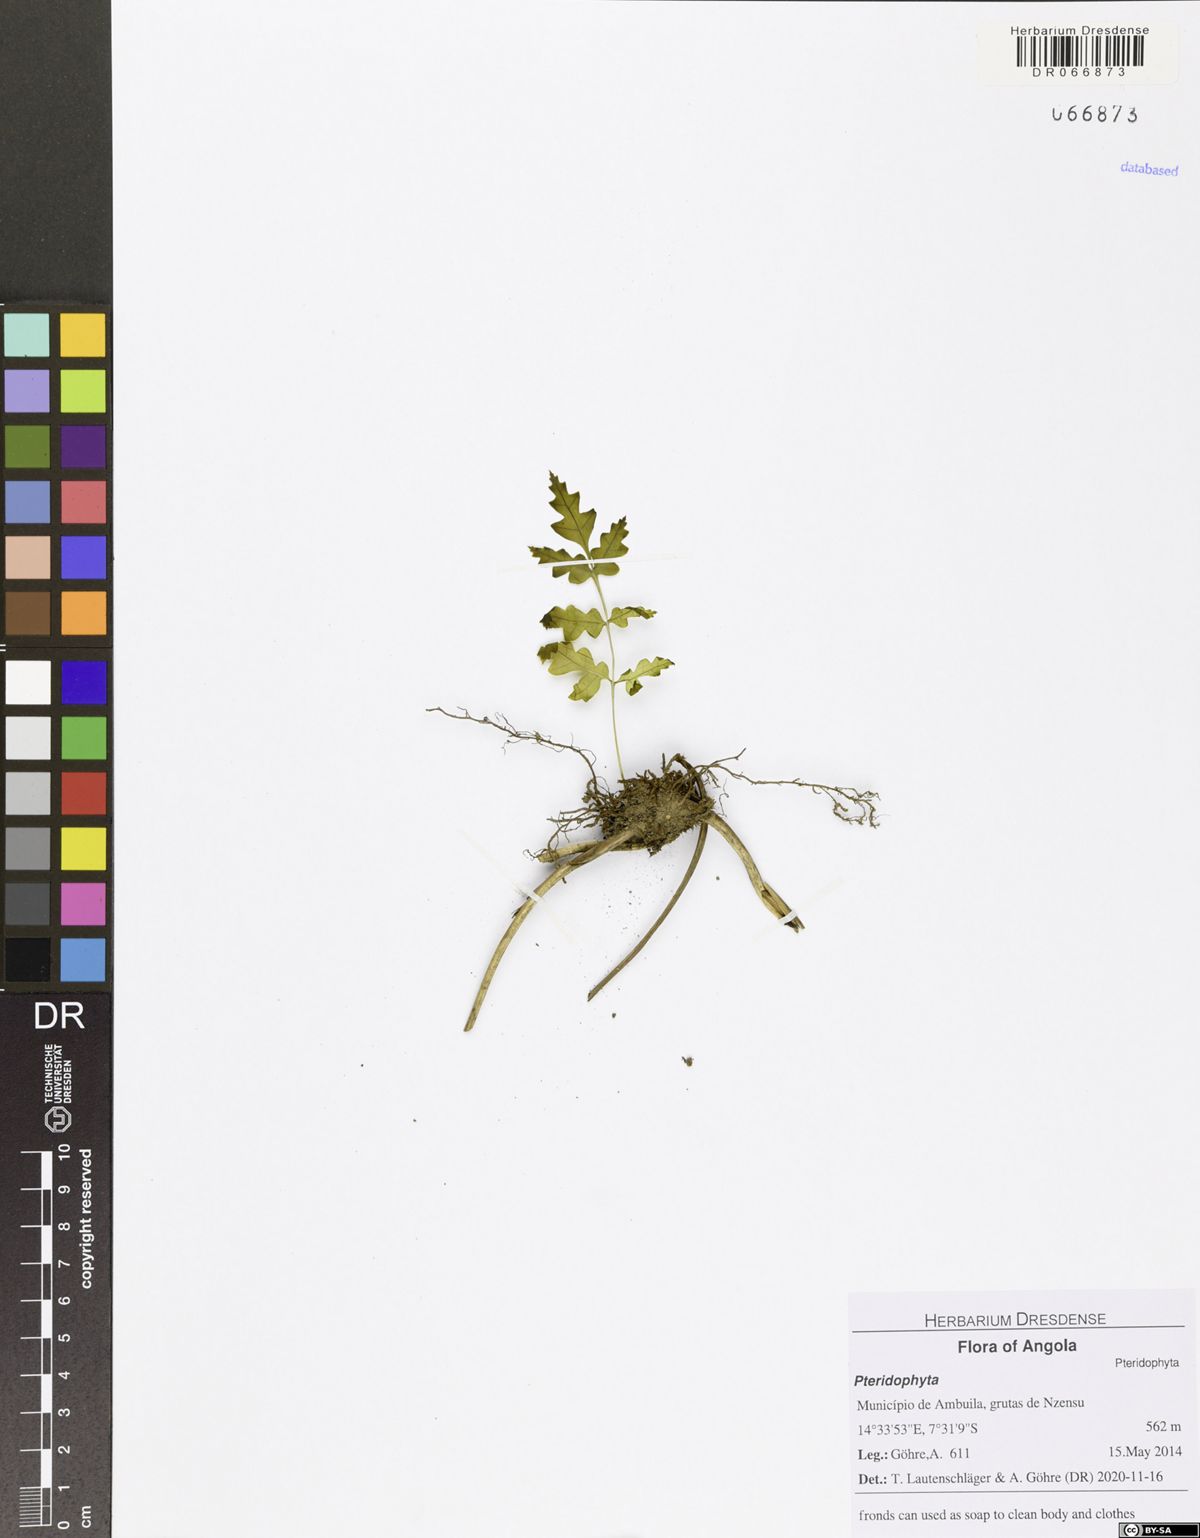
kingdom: Plantae
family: Pteridophyta
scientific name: Pteridophyta
